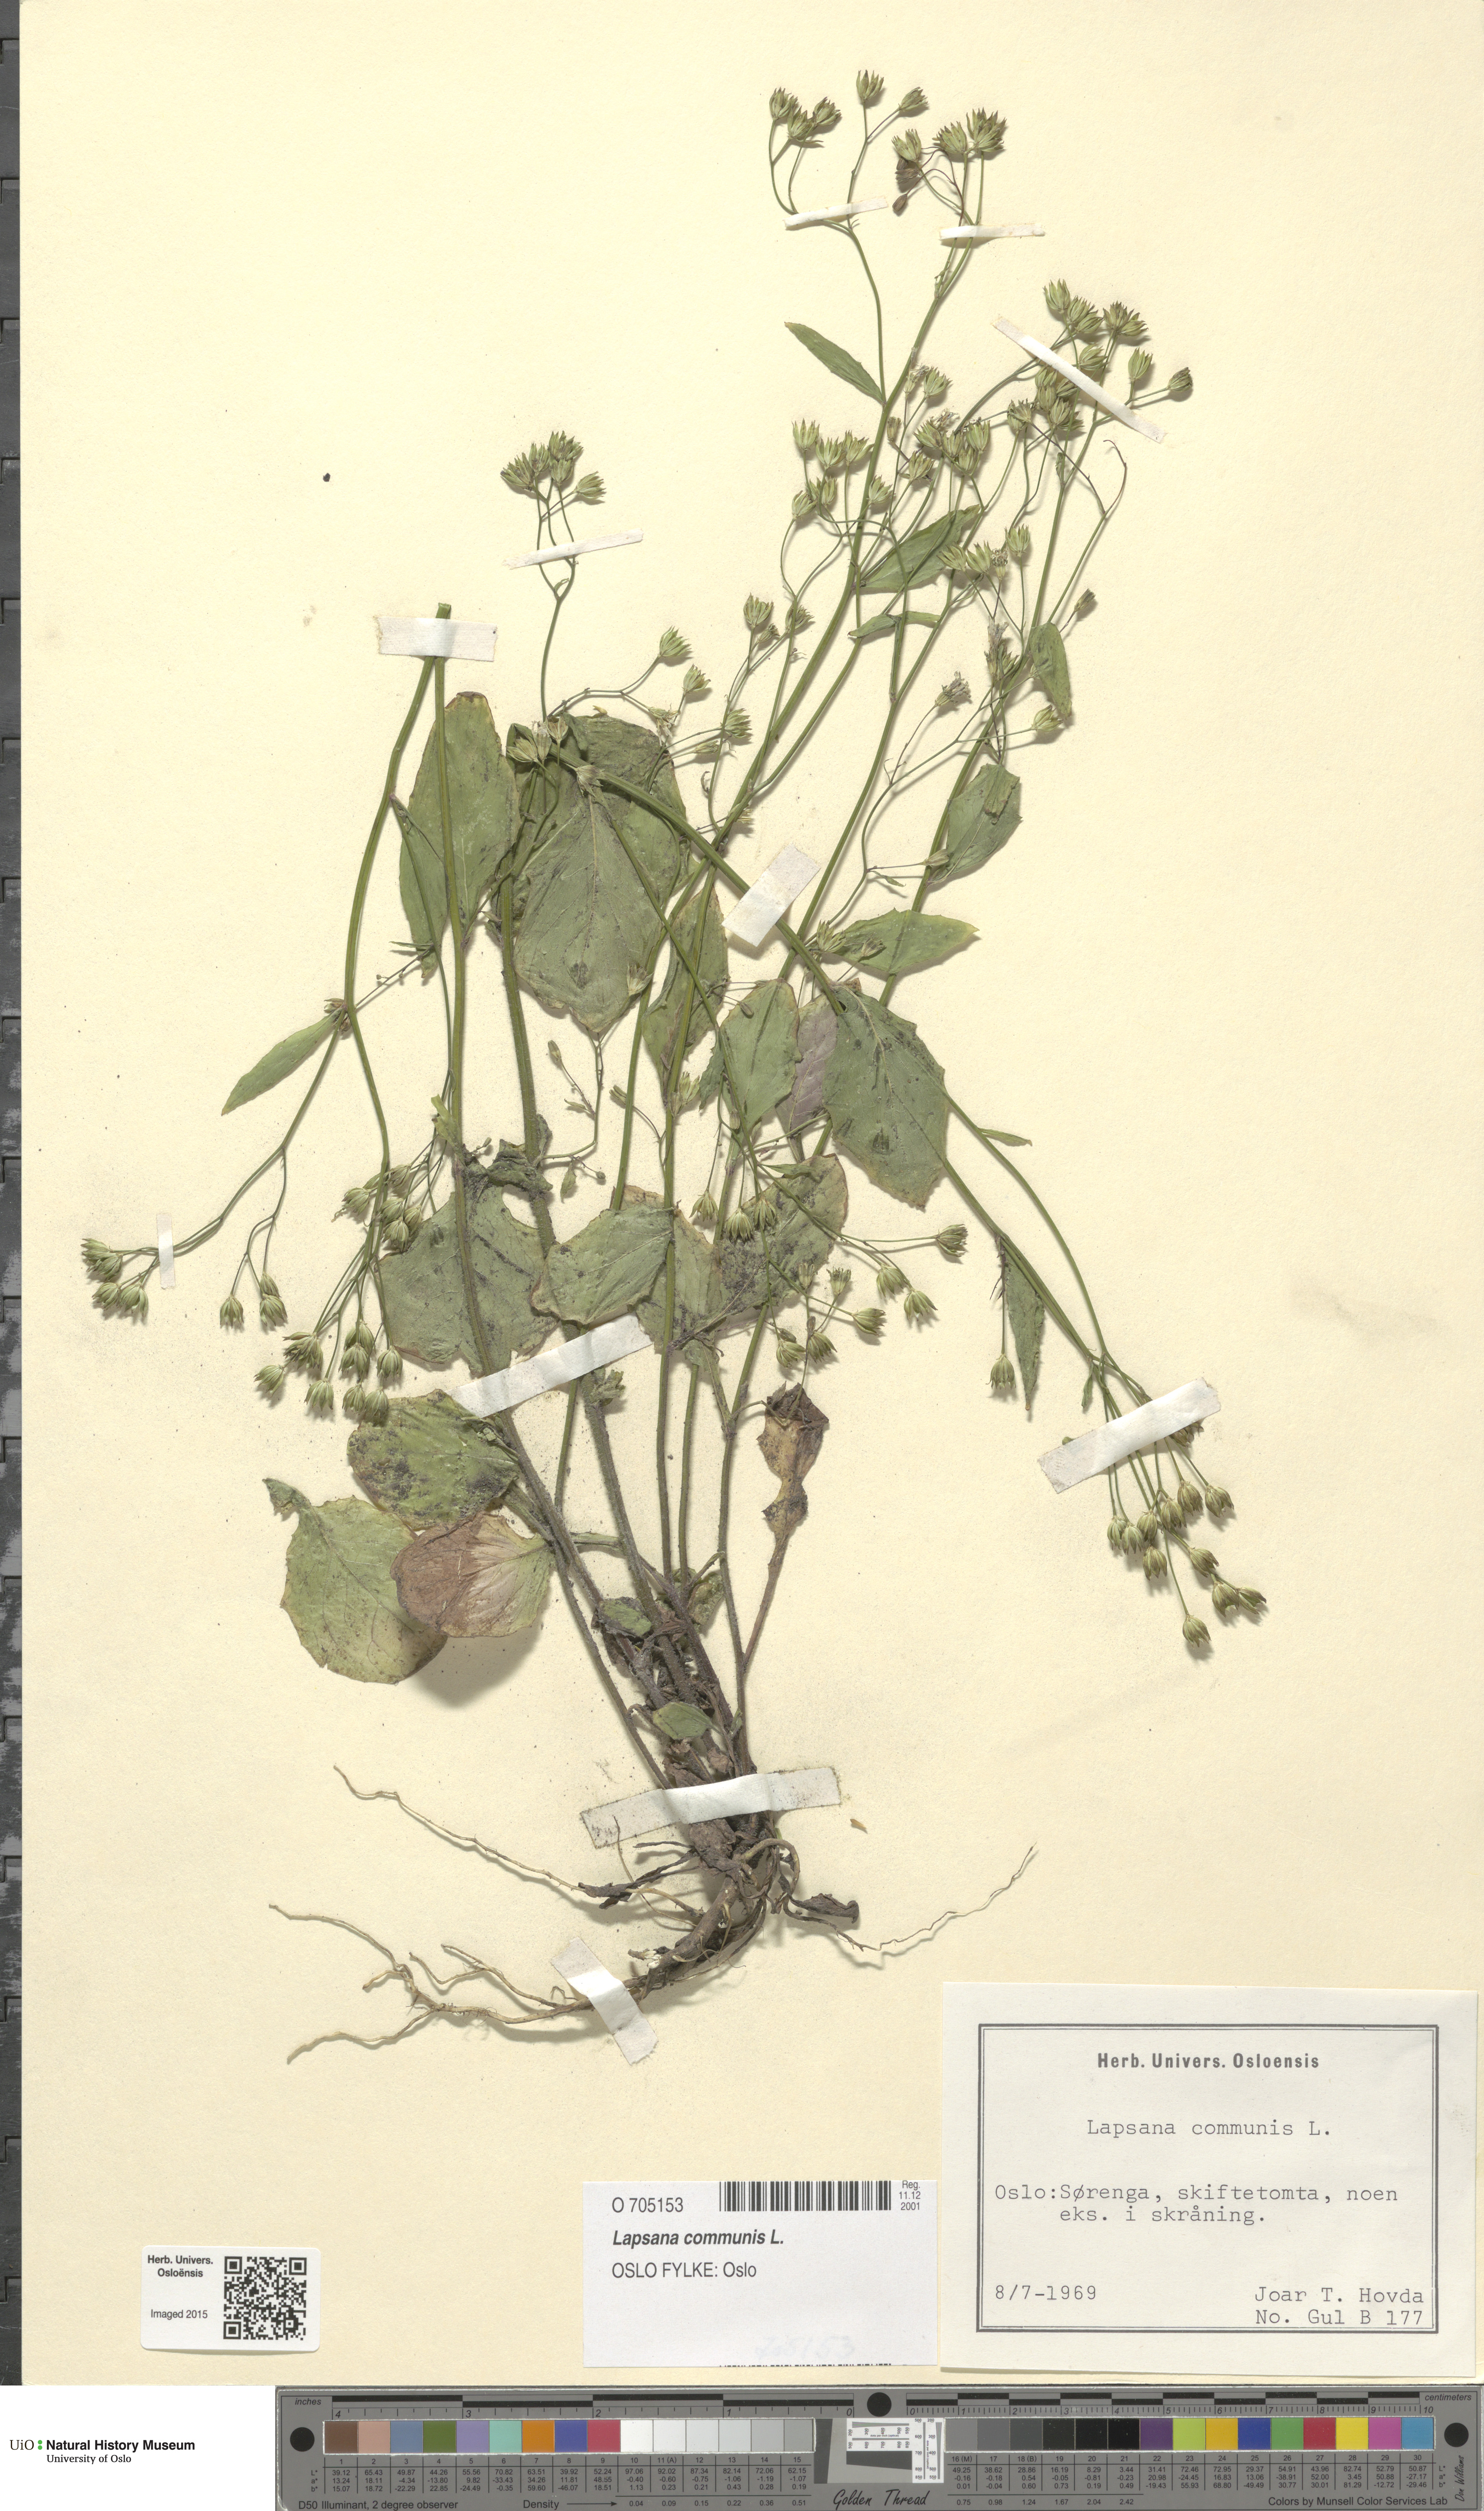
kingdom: Plantae
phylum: Tracheophyta
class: Magnoliopsida
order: Asterales
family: Asteraceae
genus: Lapsana
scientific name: Lapsana communis
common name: Nipplewort
